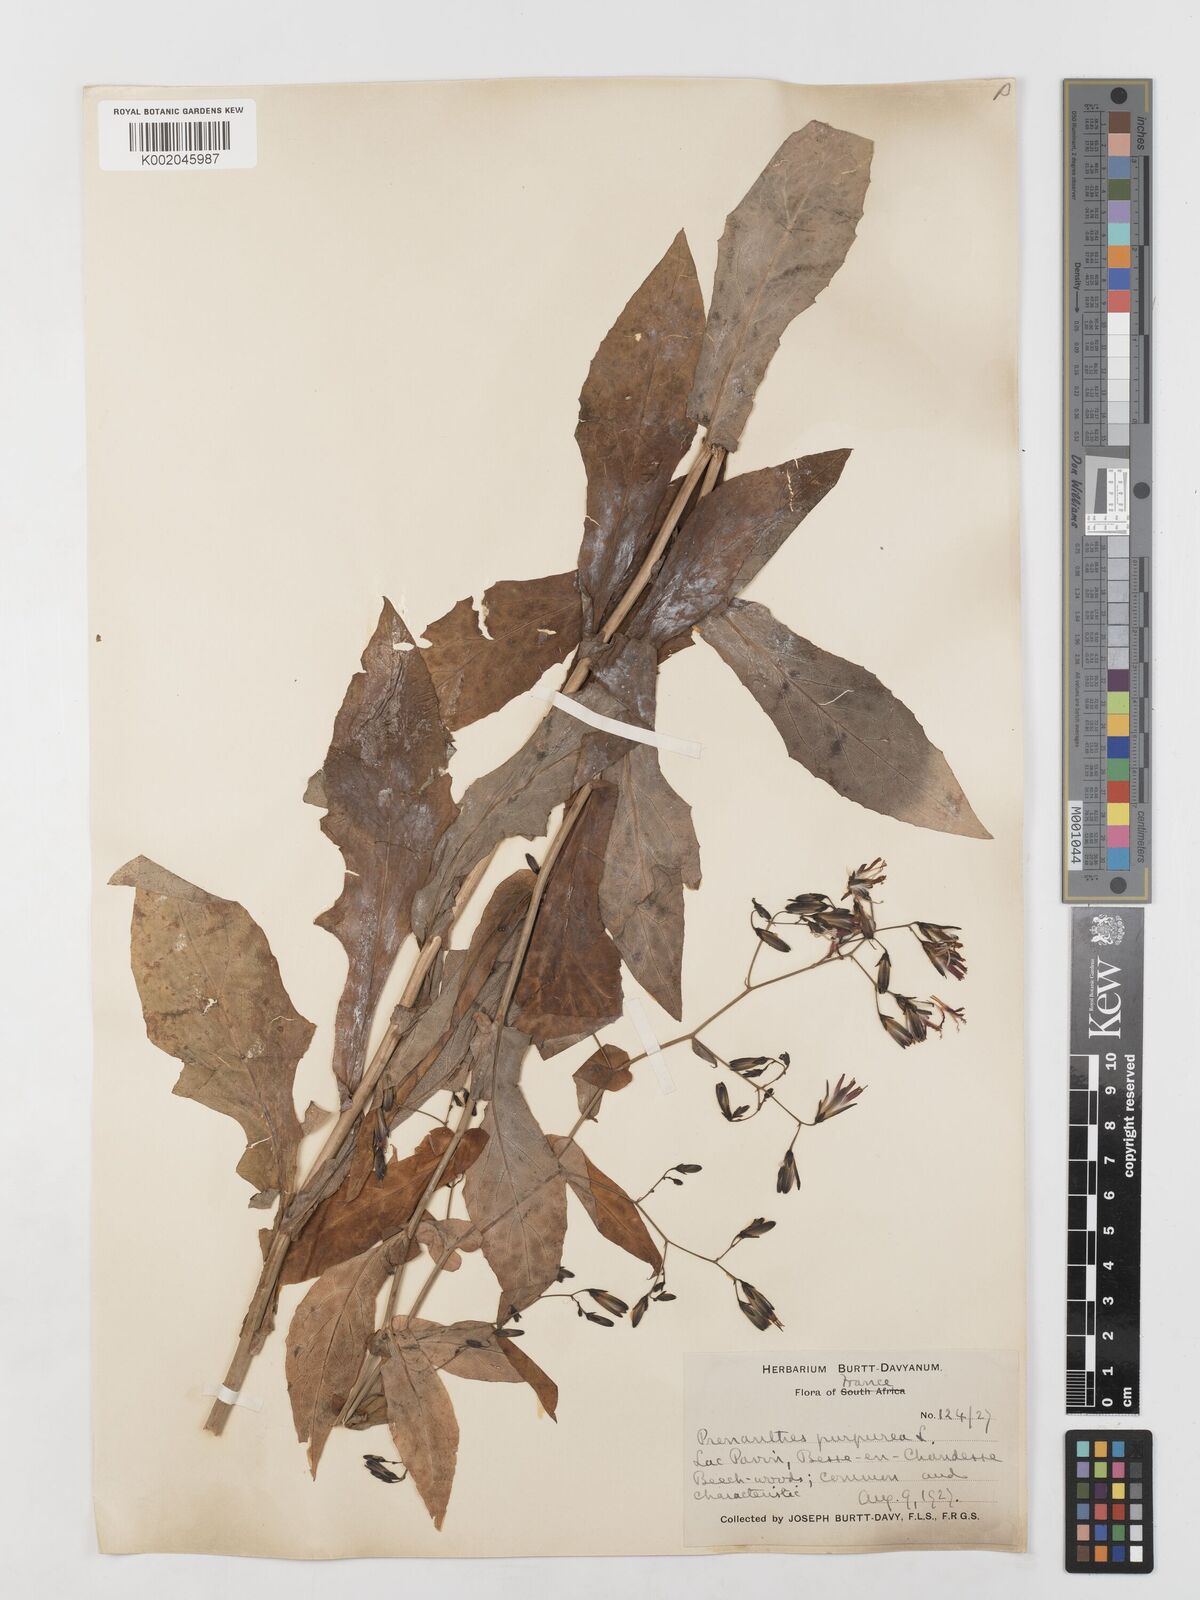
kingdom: Plantae
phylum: Tracheophyta
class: Magnoliopsida
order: Asterales
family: Asteraceae
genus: Prenanthes
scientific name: Prenanthes purpurea
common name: Purple lettuce
